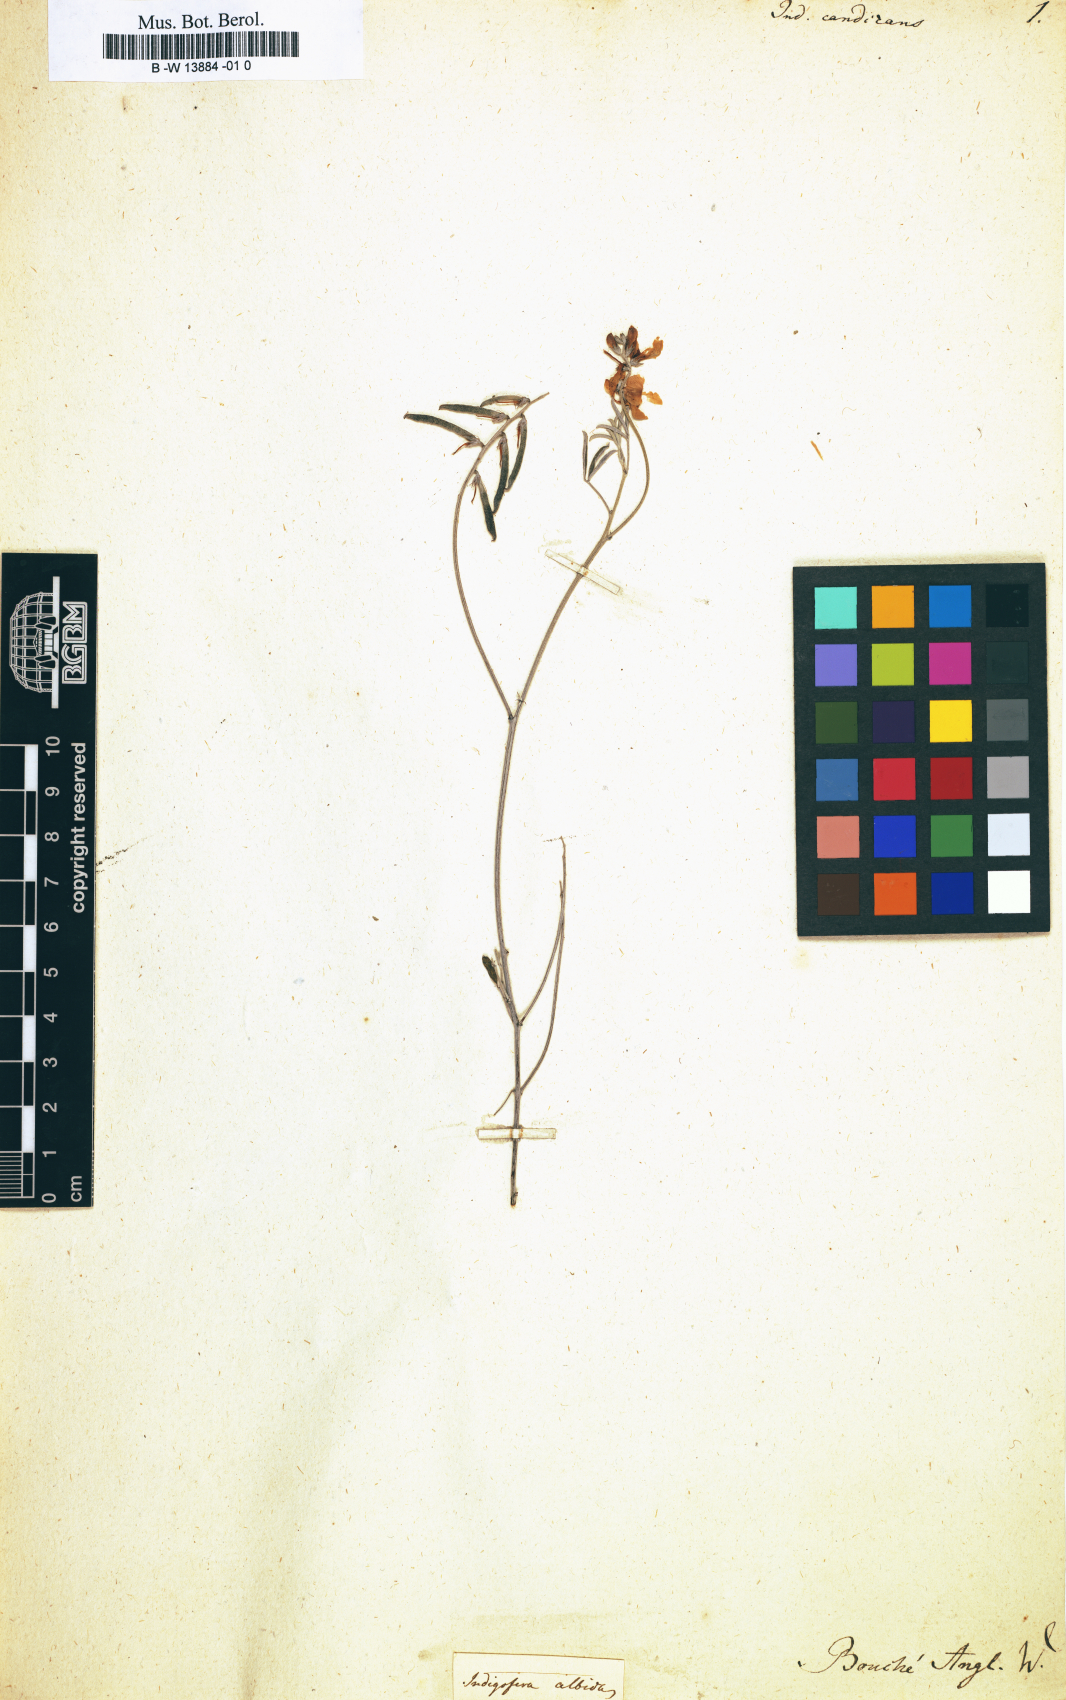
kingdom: Plantae
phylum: Tracheophyta
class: Magnoliopsida
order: Fabales
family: Fabaceae
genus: Indigofera
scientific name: Indigofera heterophylla
